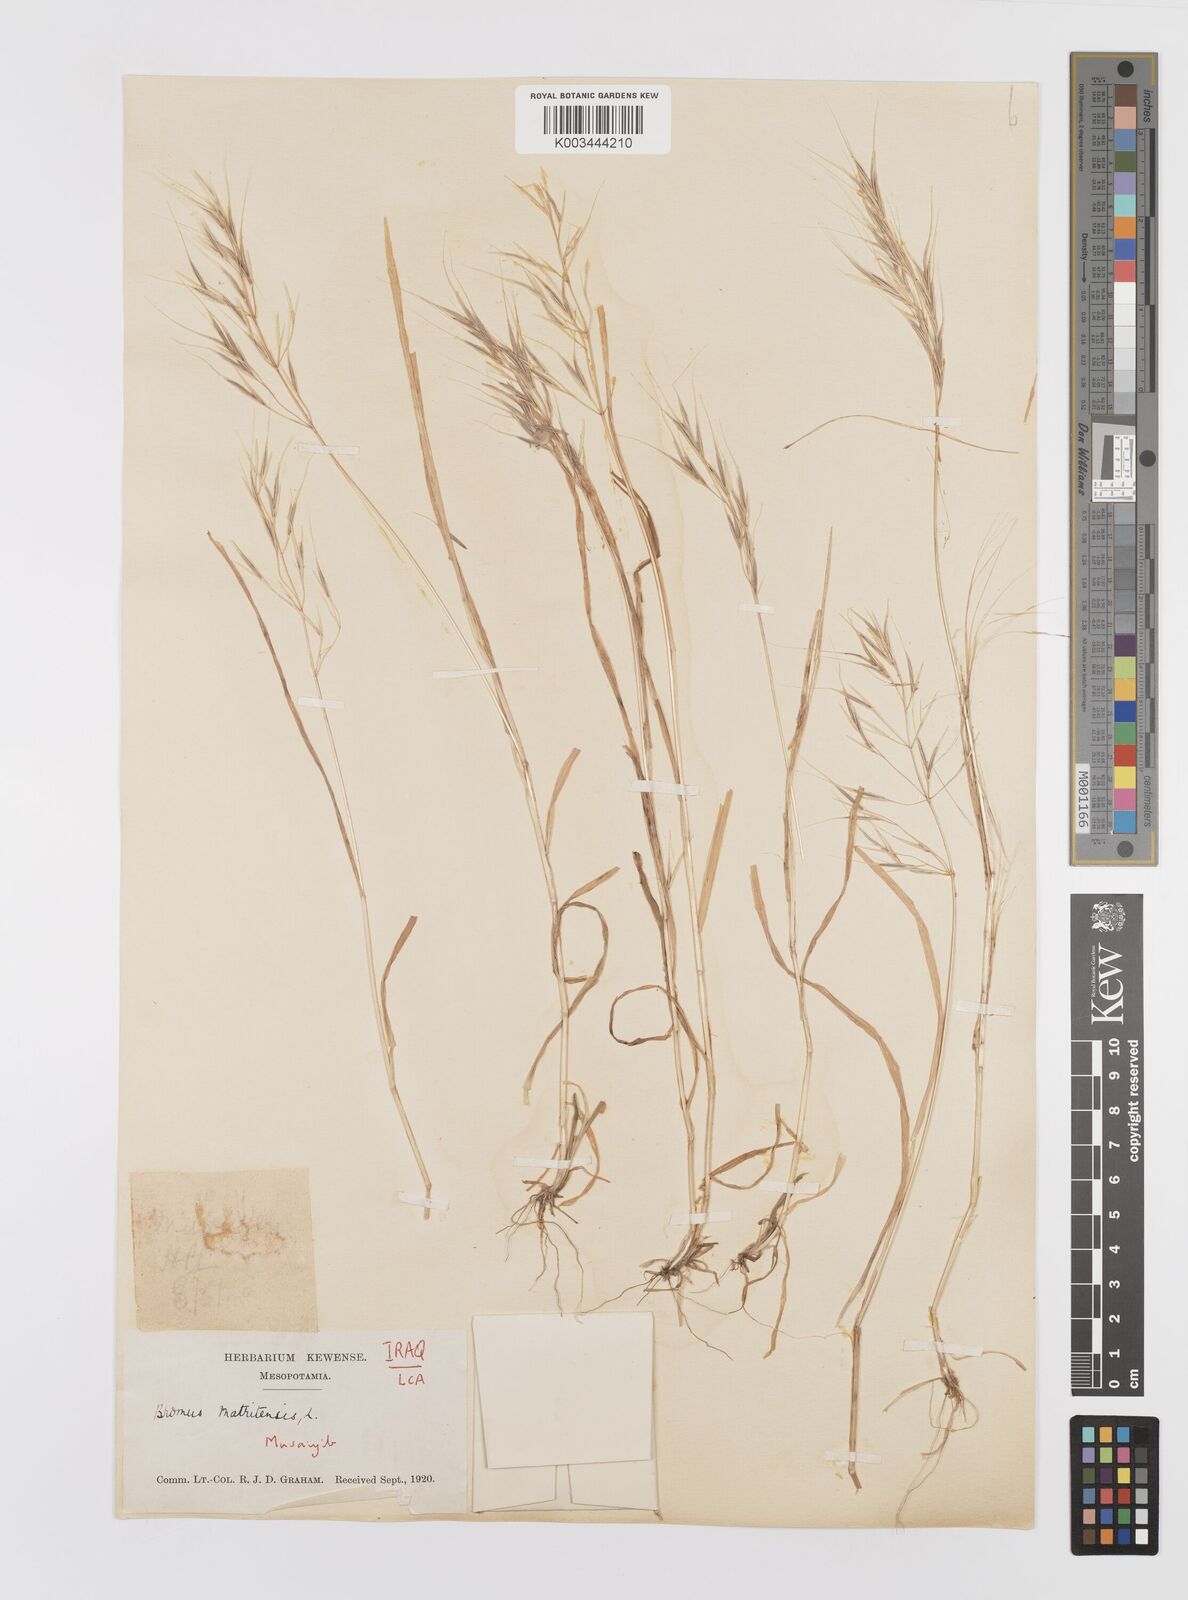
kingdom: Plantae
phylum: Tracheophyta
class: Liliopsida
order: Poales
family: Poaceae
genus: Bromus
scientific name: Bromus madritensis
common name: Compact brome
